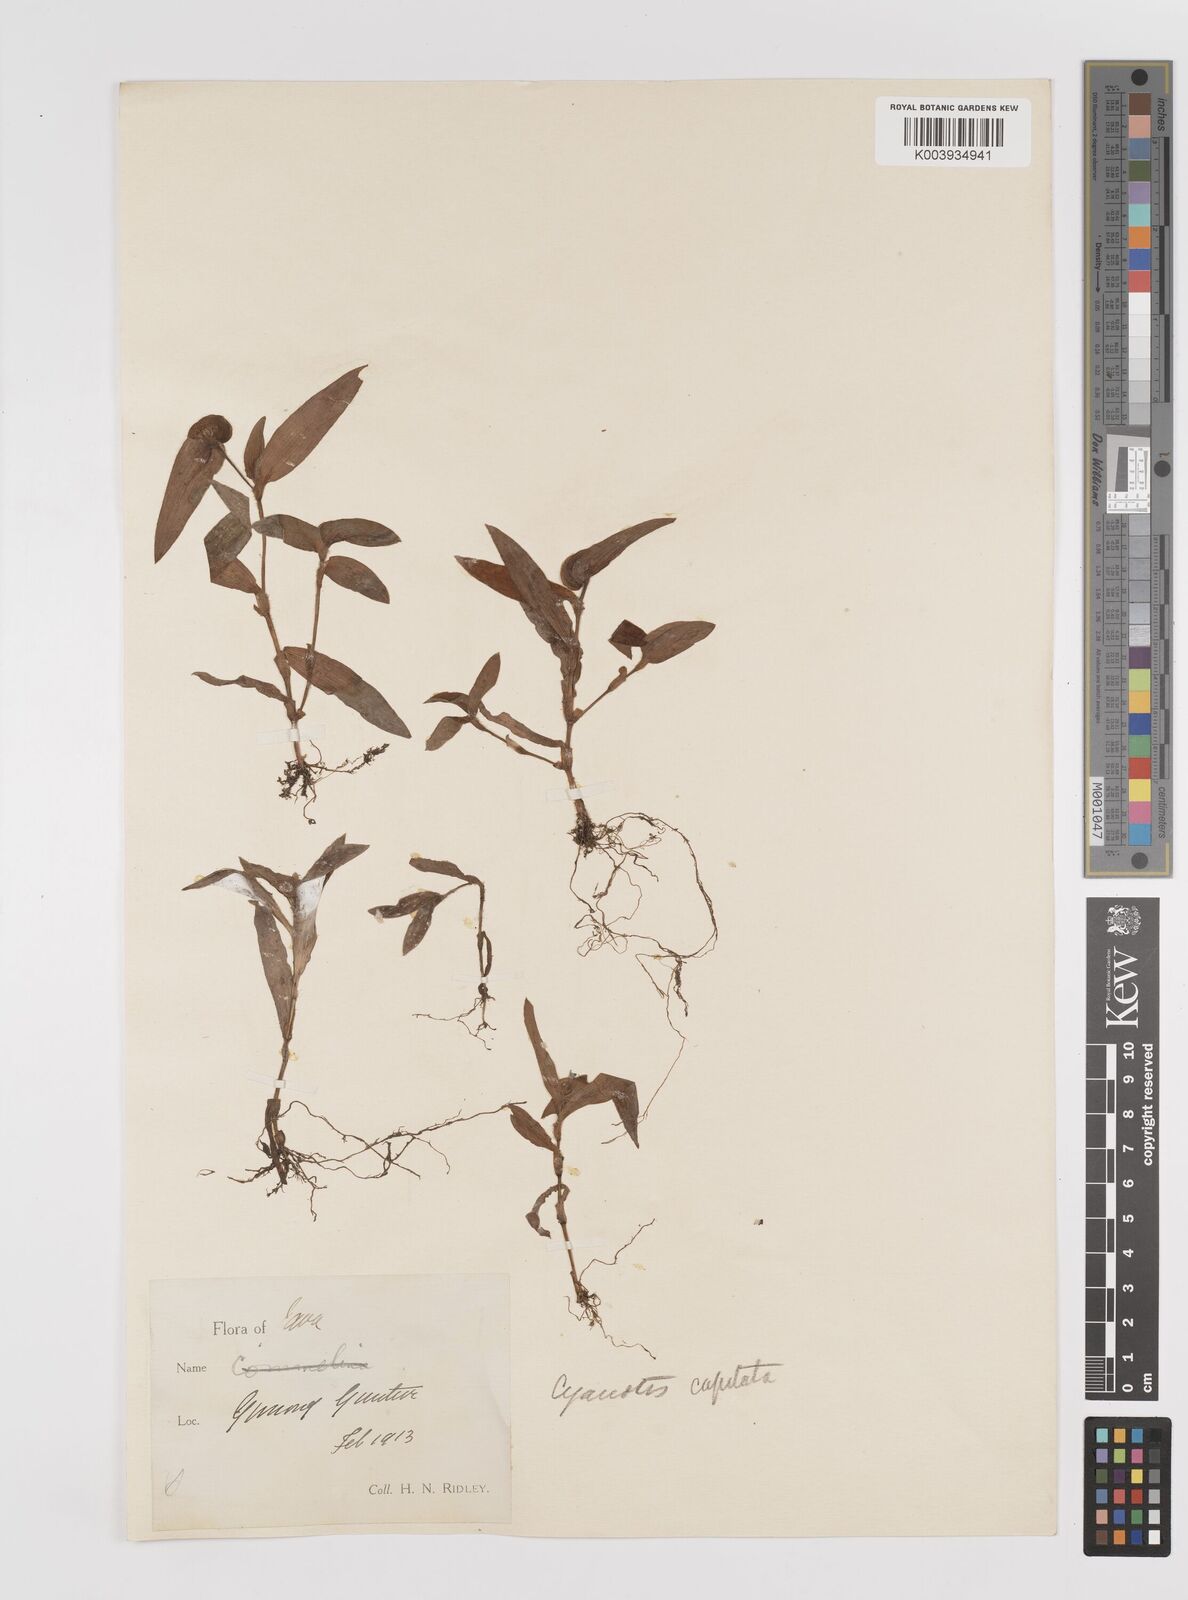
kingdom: Plantae
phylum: Tracheophyta
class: Liliopsida
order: Commelinales
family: Commelinaceae
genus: Cyanotis
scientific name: Cyanotis cristata
